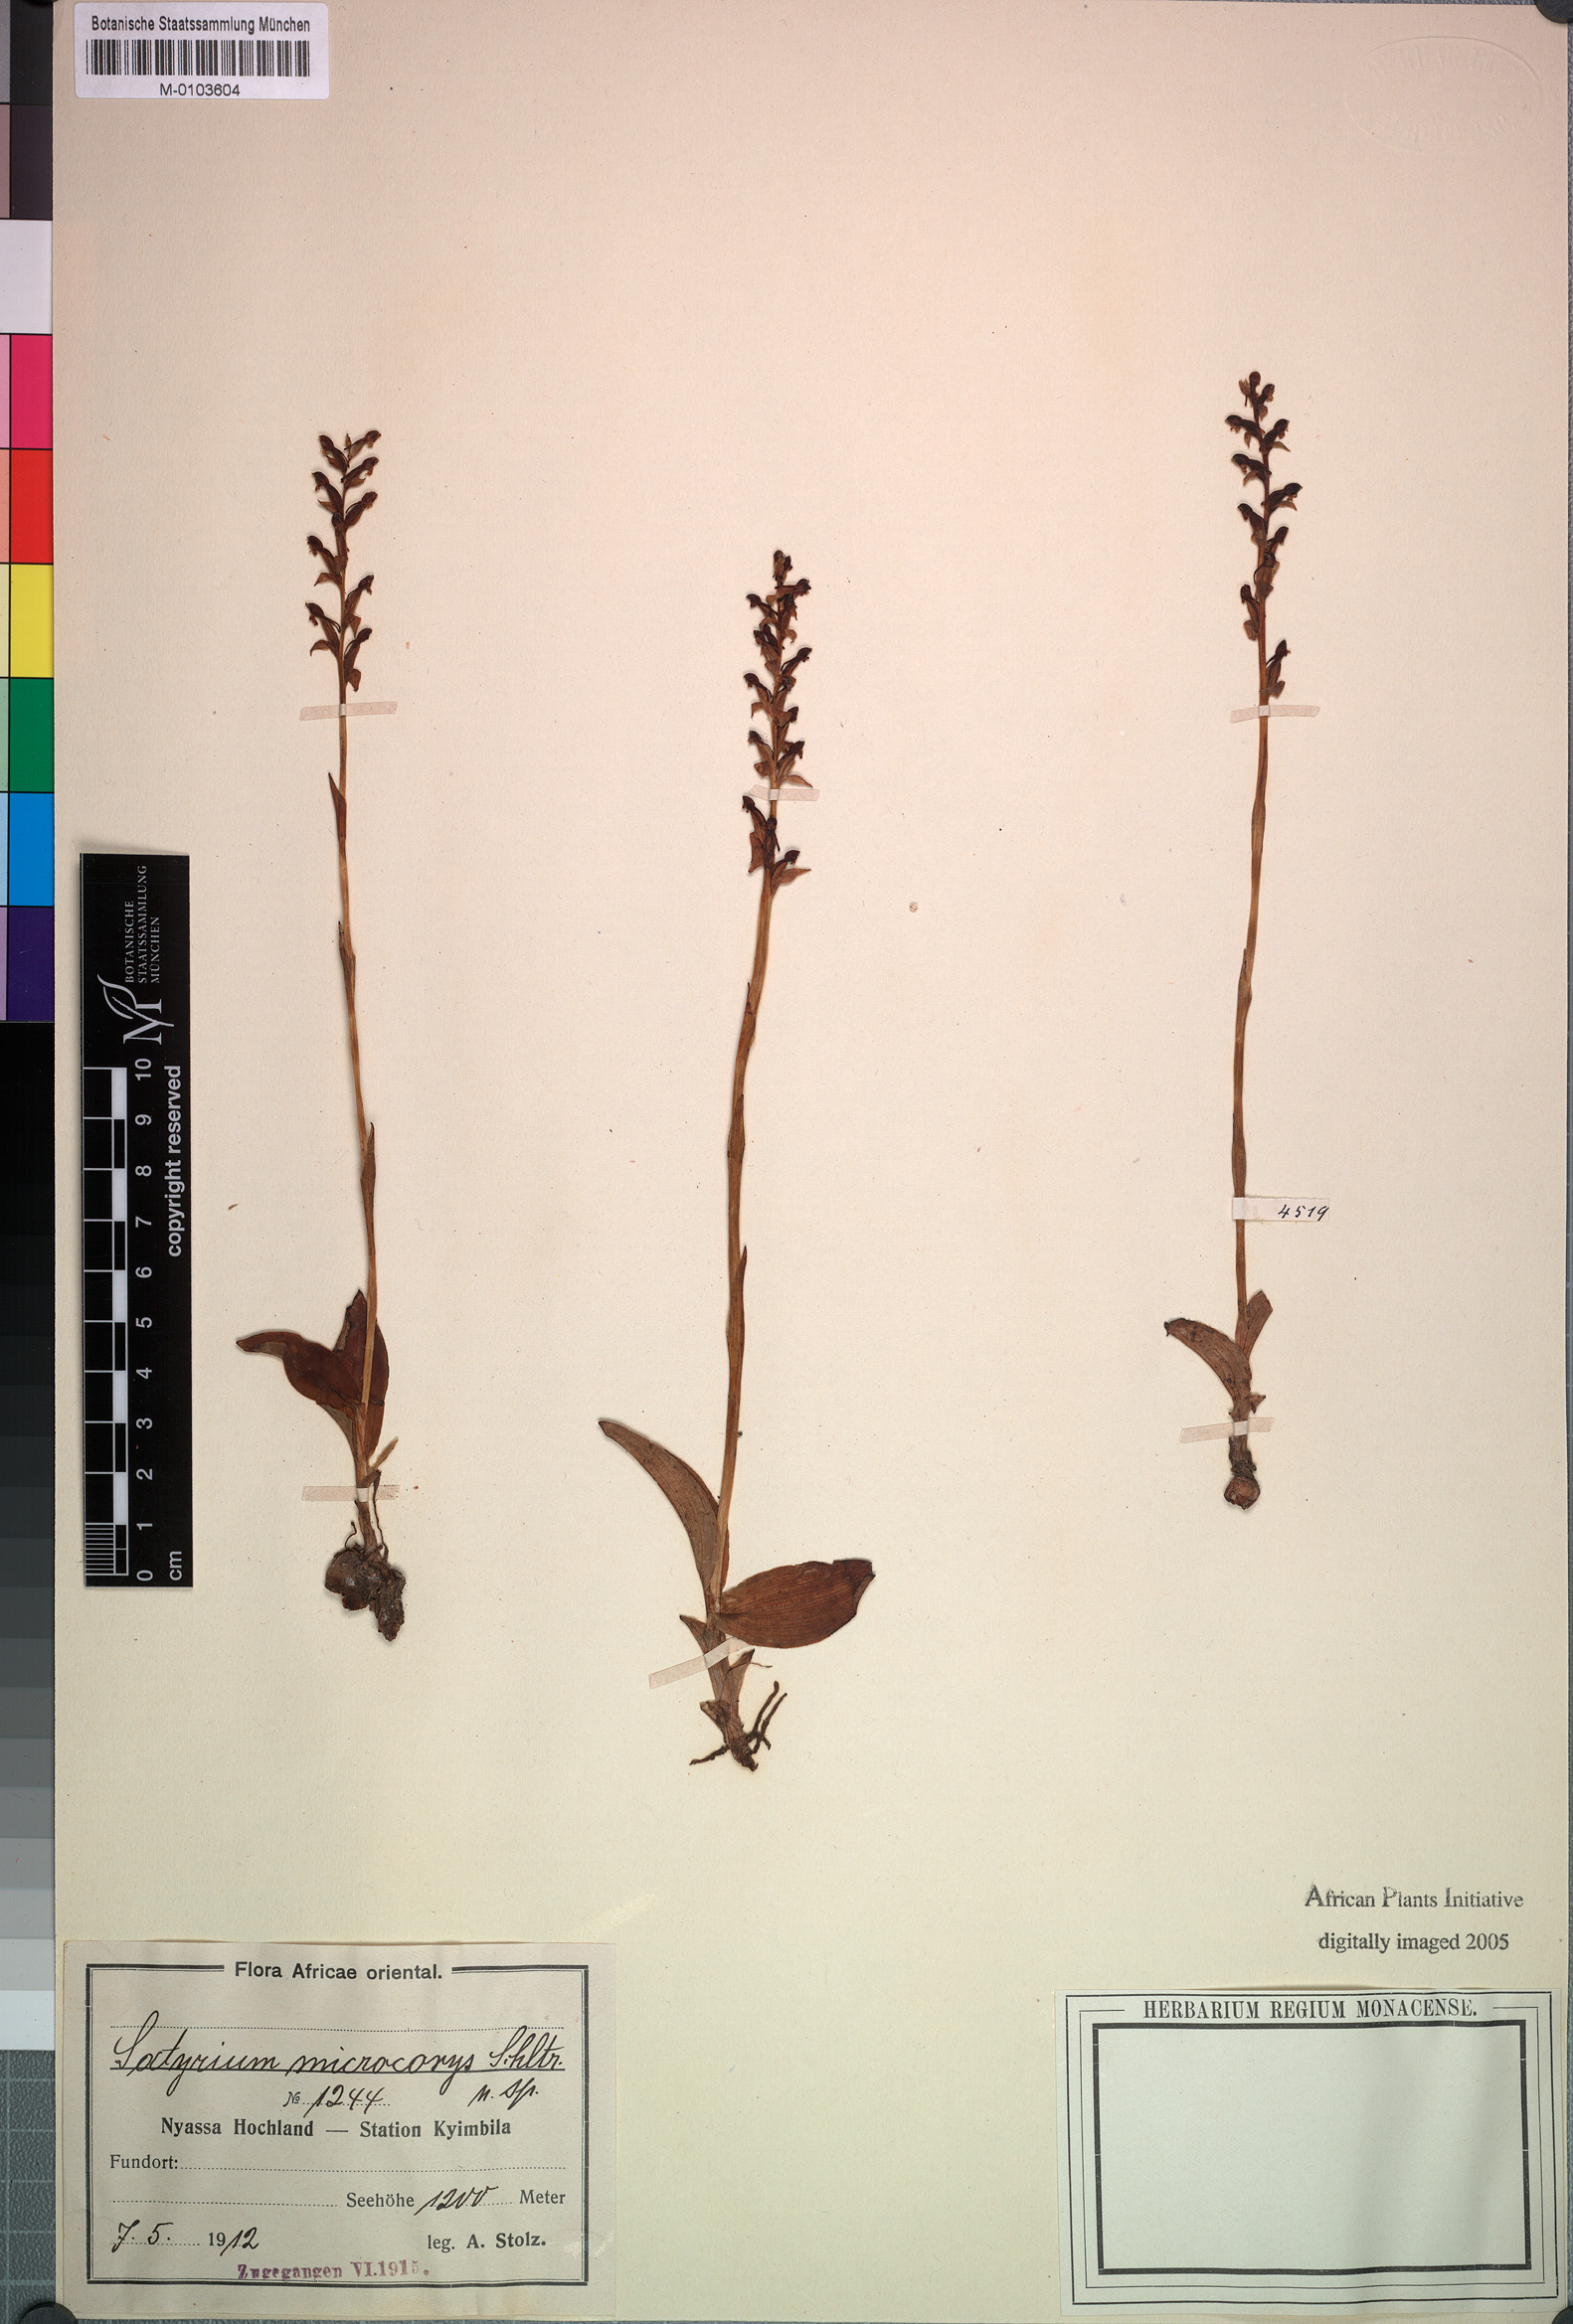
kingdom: Plantae
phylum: Tracheophyta
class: Liliopsida
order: Asparagales
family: Orchidaceae
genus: Satyrium
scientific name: Satyrium microcorys
